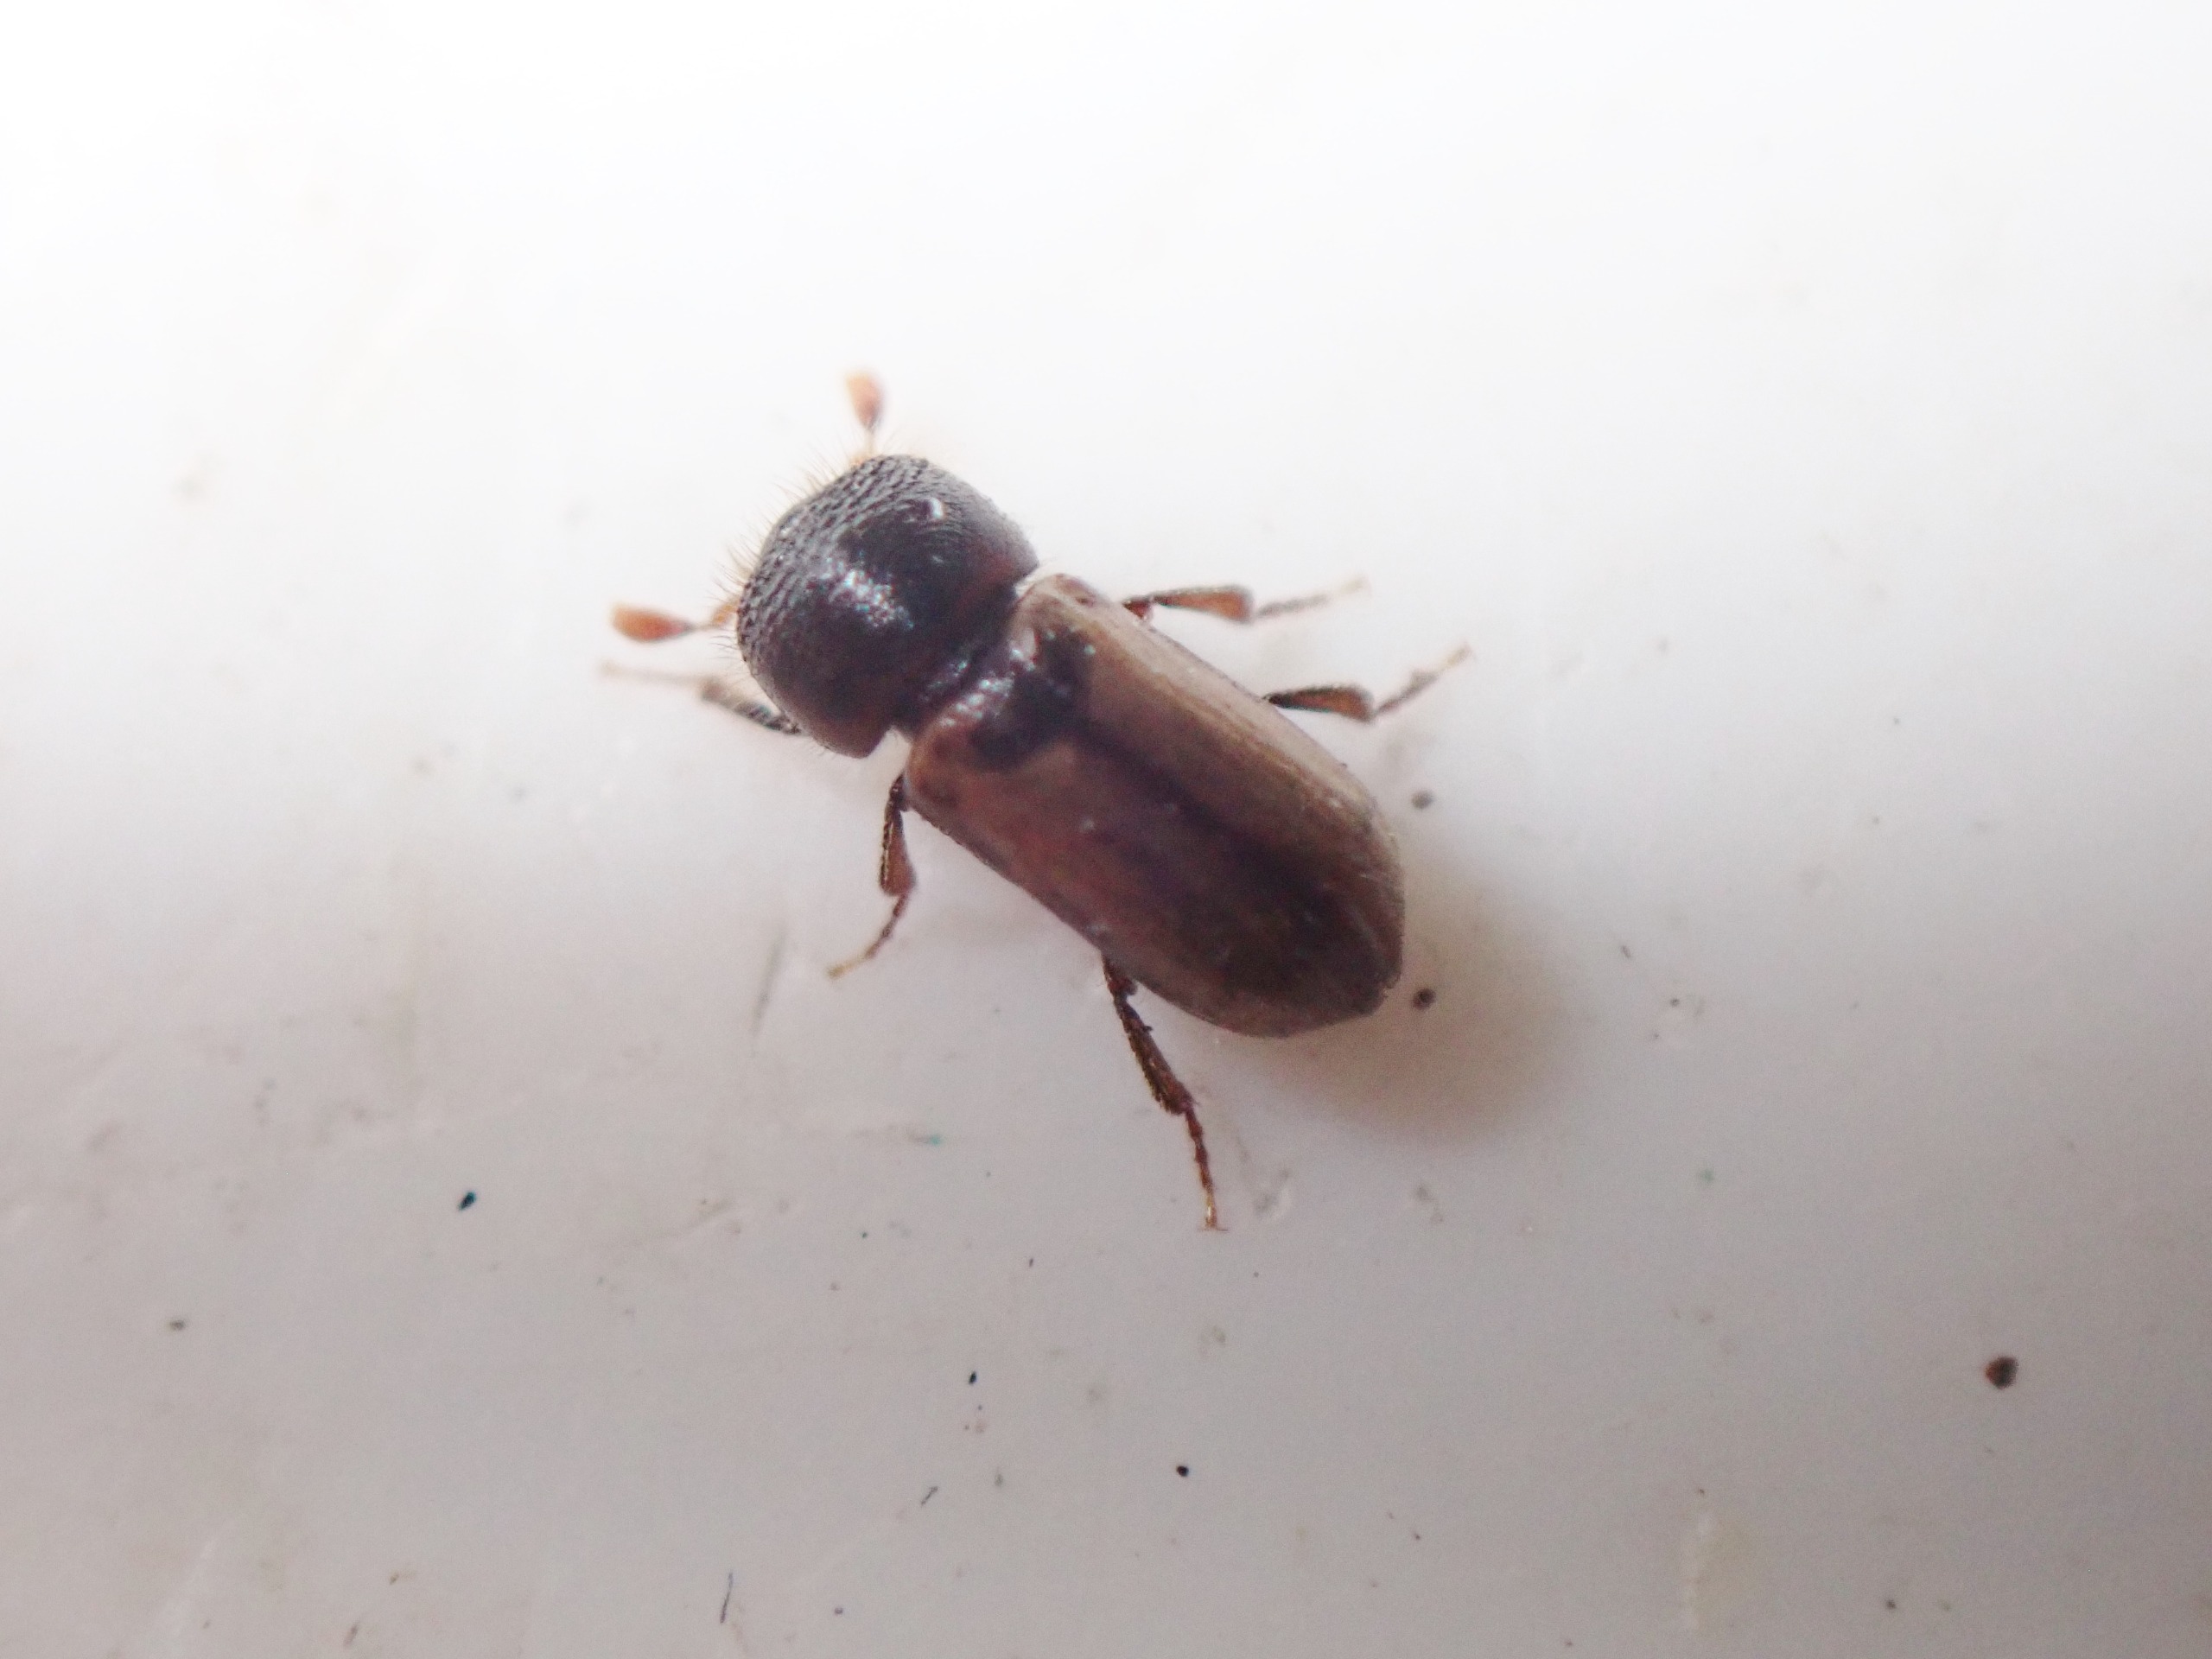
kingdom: Animalia
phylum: Arthropoda
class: Insecta
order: Coleoptera
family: Curculionidae
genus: Trypodendron
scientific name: Trypodendron domesticum
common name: Gul vedborer
